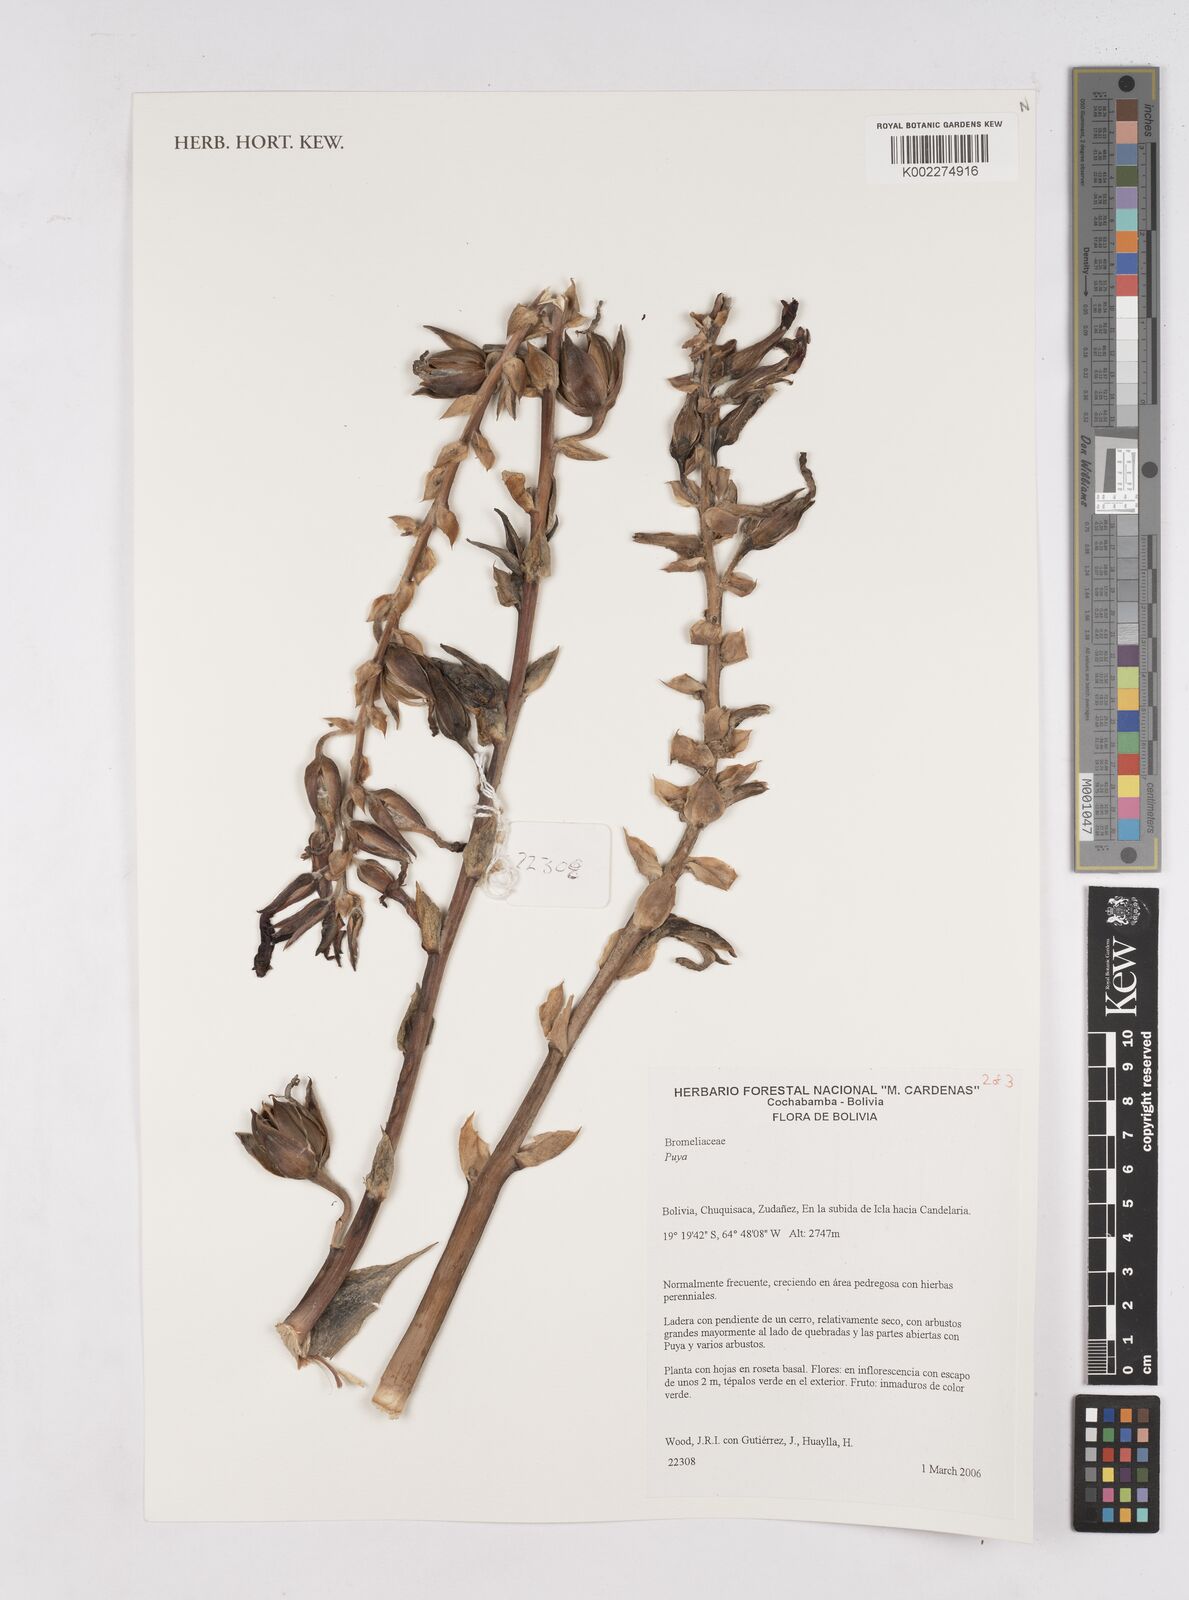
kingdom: Plantae
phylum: Tracheophyta
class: Liliopsida
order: Poales
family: Bromeliaceae
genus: Puya
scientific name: Puya
